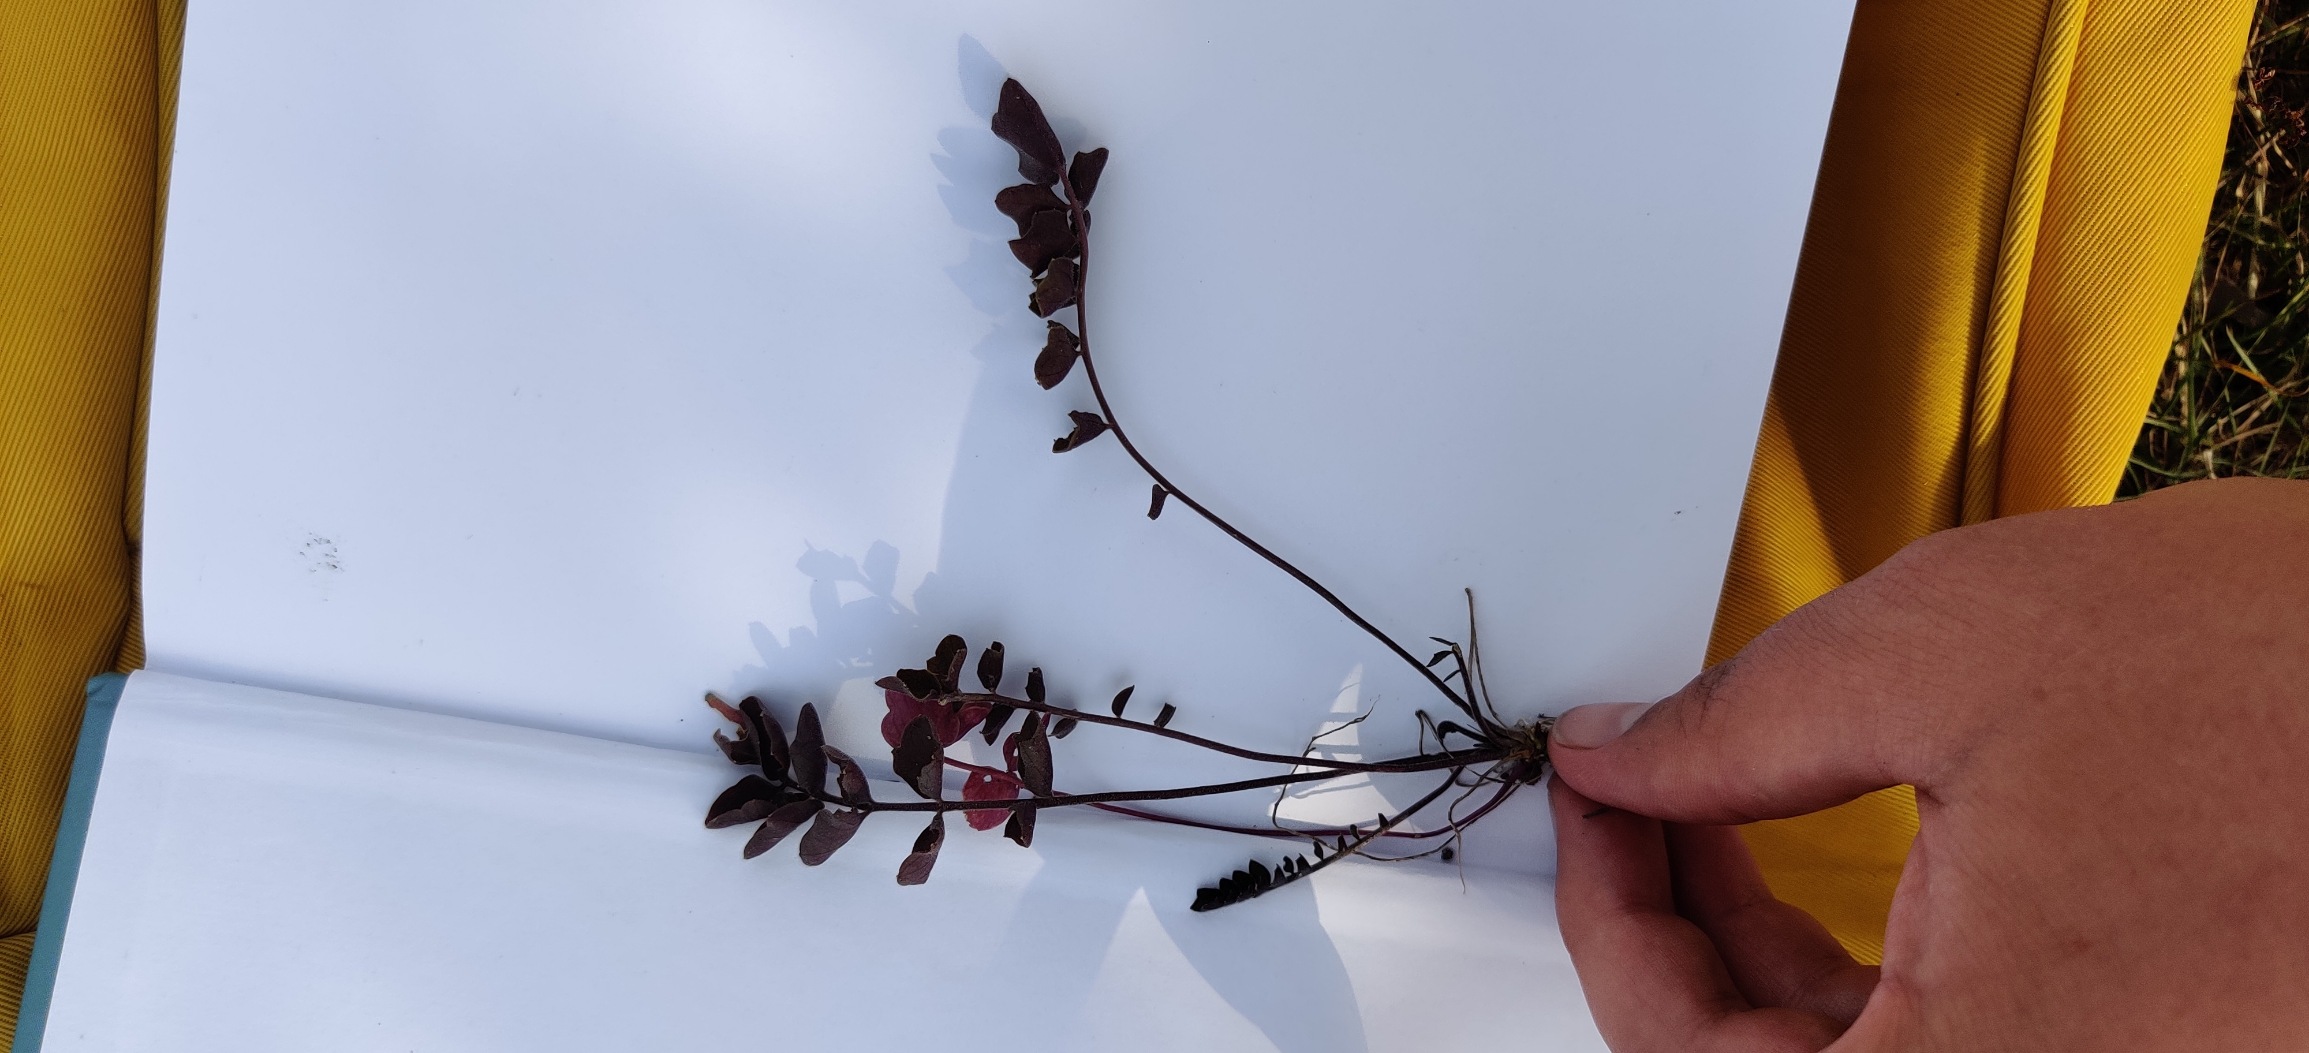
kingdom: Plantae
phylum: Tracheophyta
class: Magnoliopsida
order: Brassicales
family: Brassicaceae
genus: Cardamine
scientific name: Cardamine
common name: Springklapslægten
